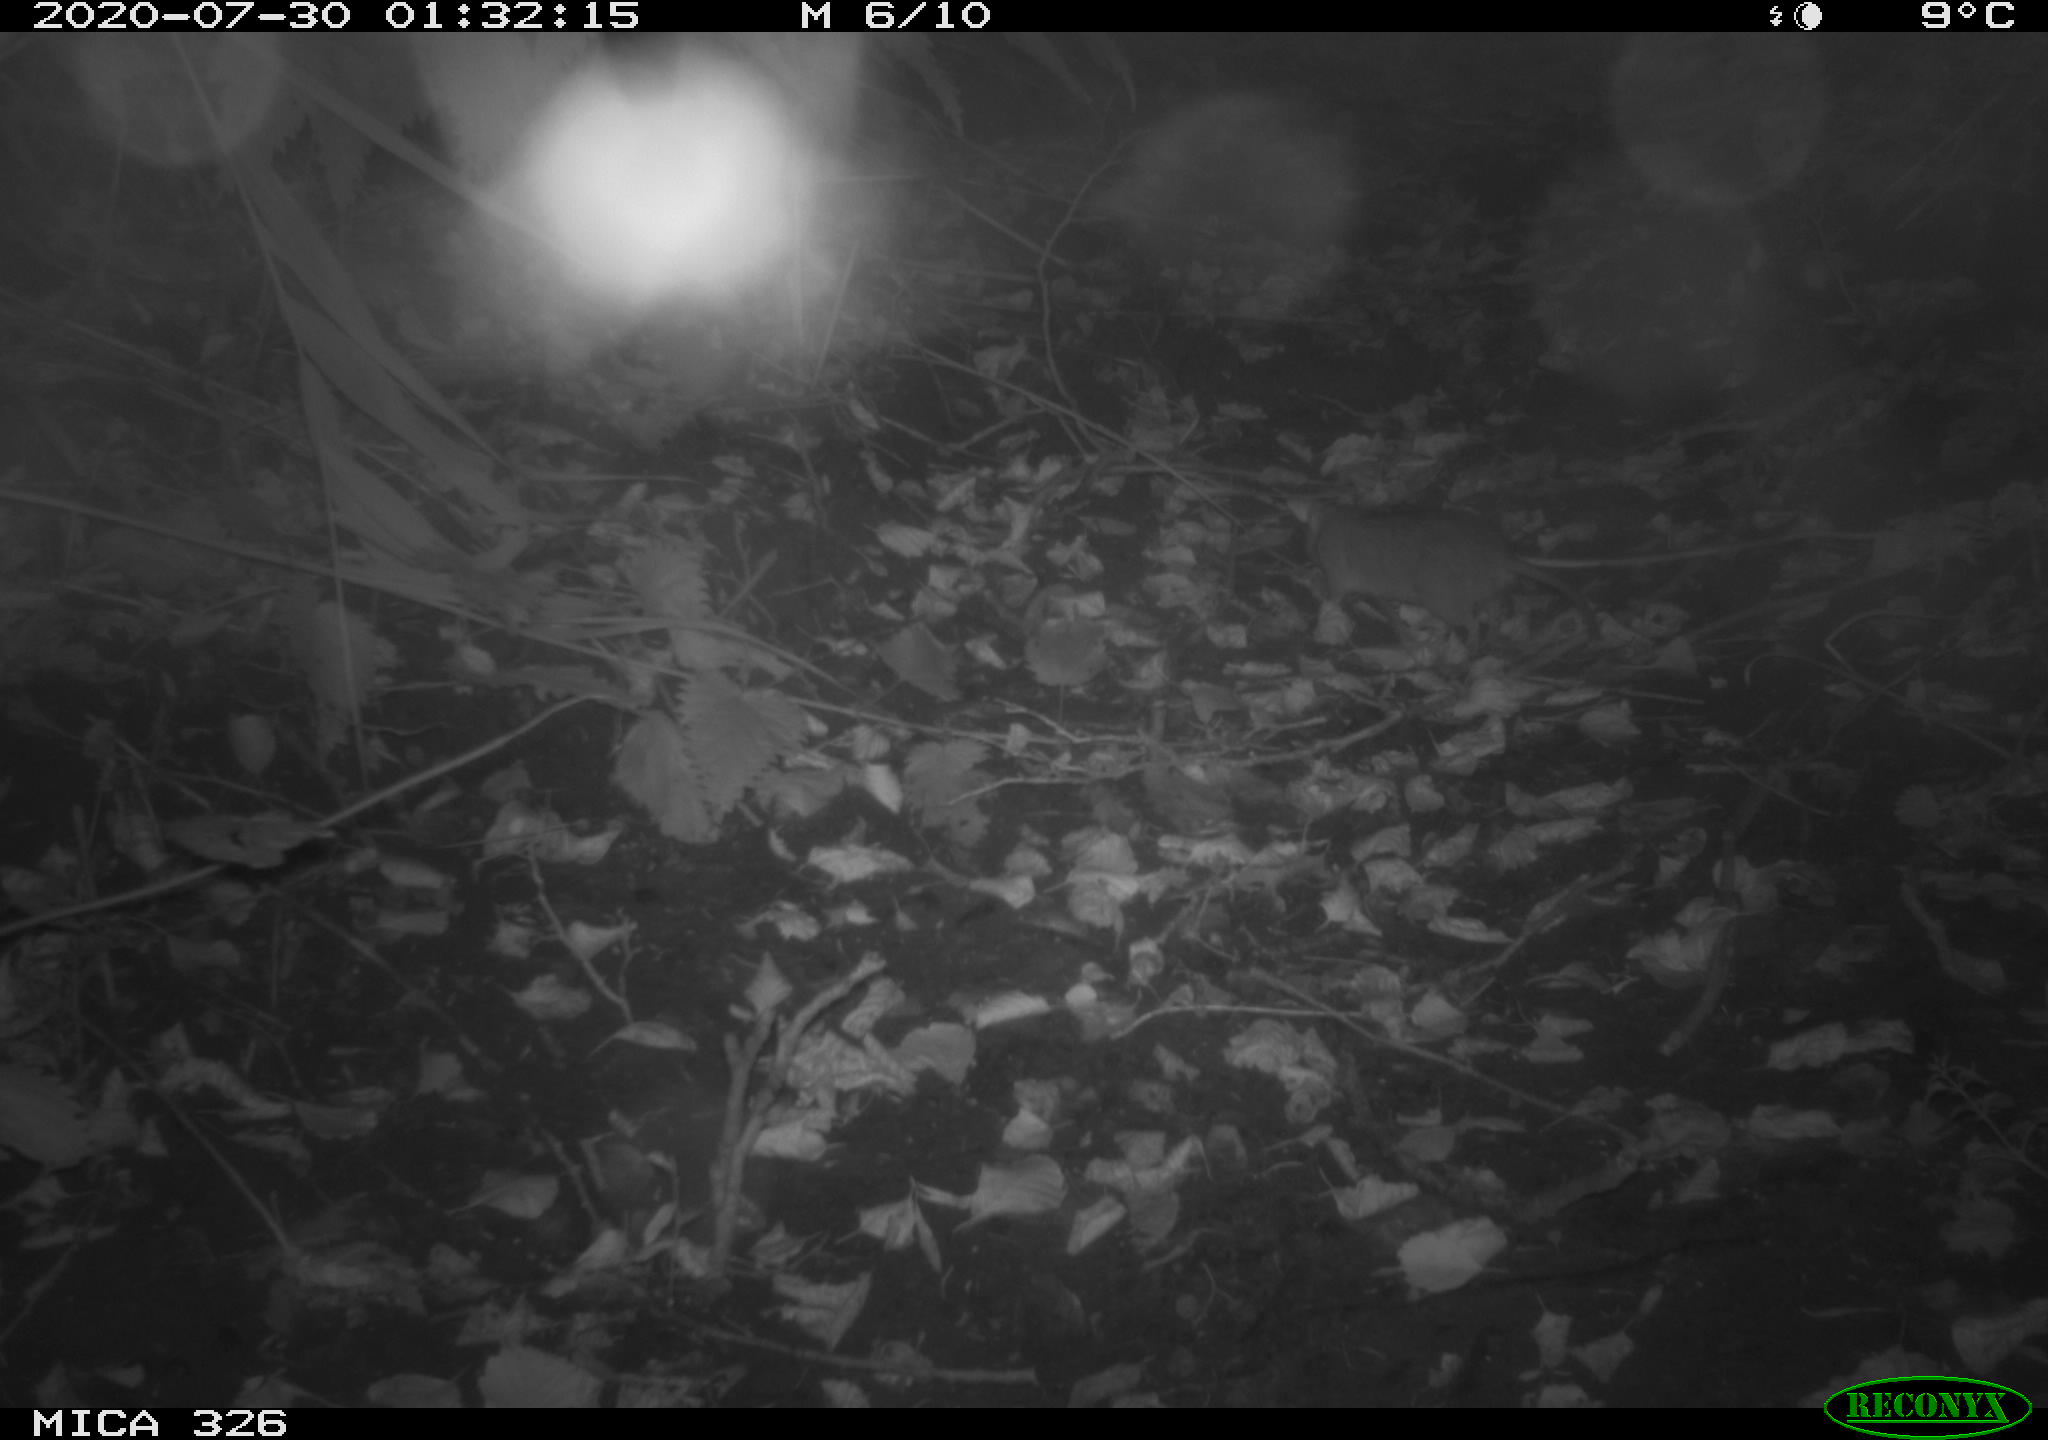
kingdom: Animalia
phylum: Chordata
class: Mammalia
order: Rodentia
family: Muridae
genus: Rattus
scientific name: Rattus norvegicus
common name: Brown rat
